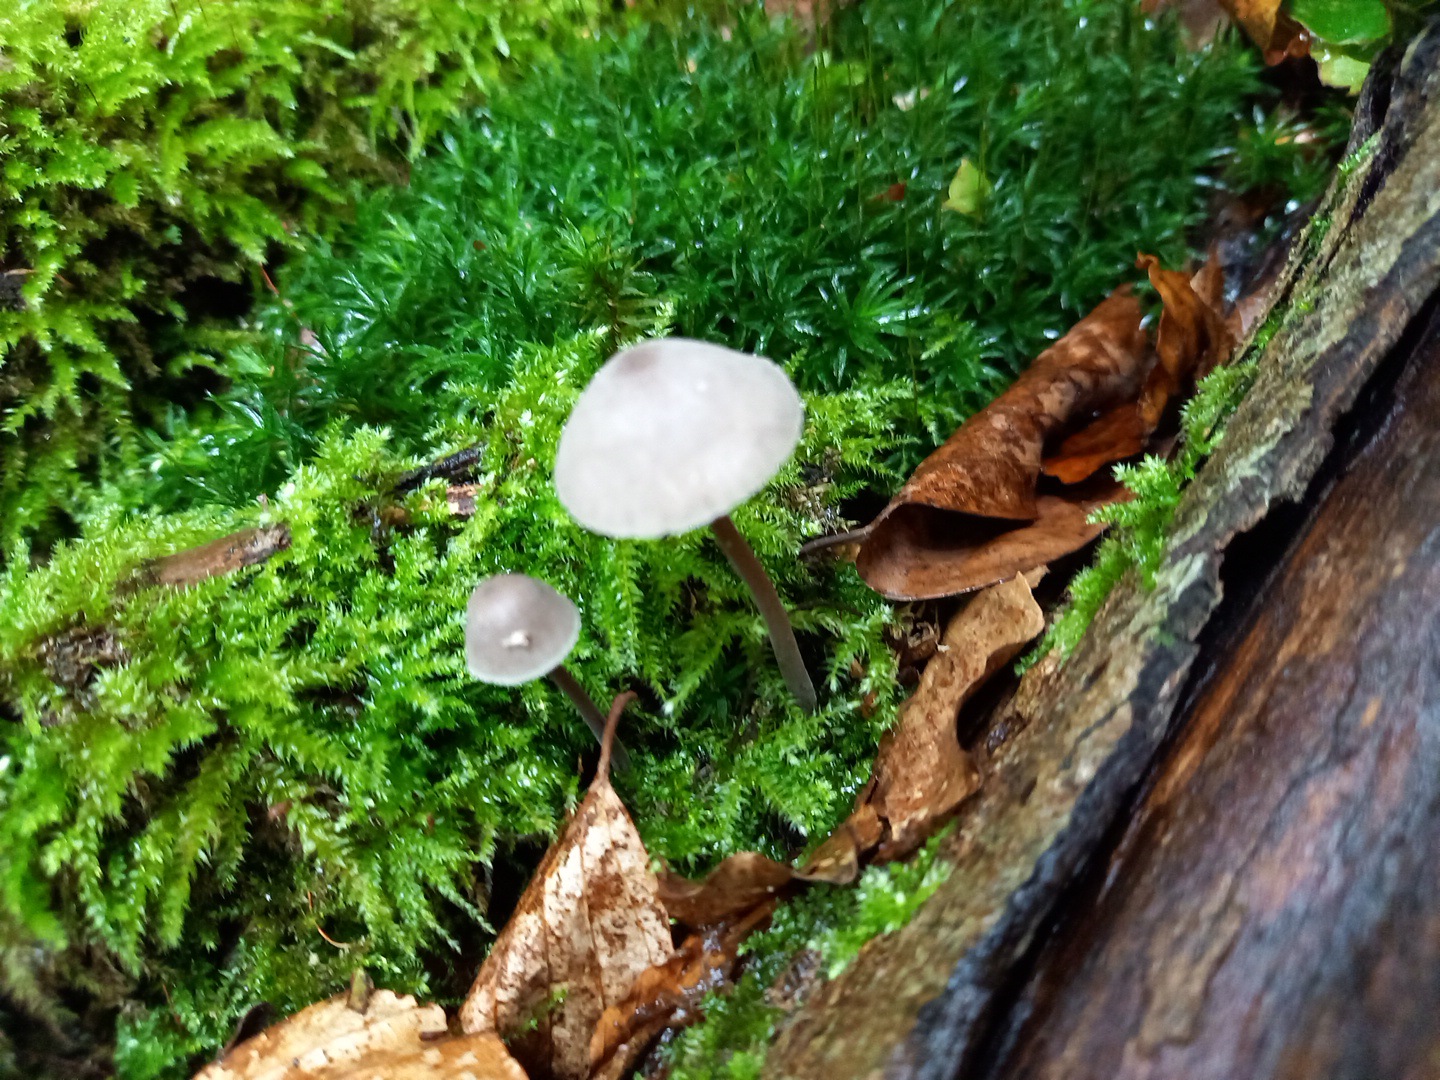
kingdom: Fungi
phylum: Basidiomycota
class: Agaricomycetes
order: Agaricales
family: Mycenaceae
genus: Mycena
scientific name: Mycena abramsii
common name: sommer-huesvamp
